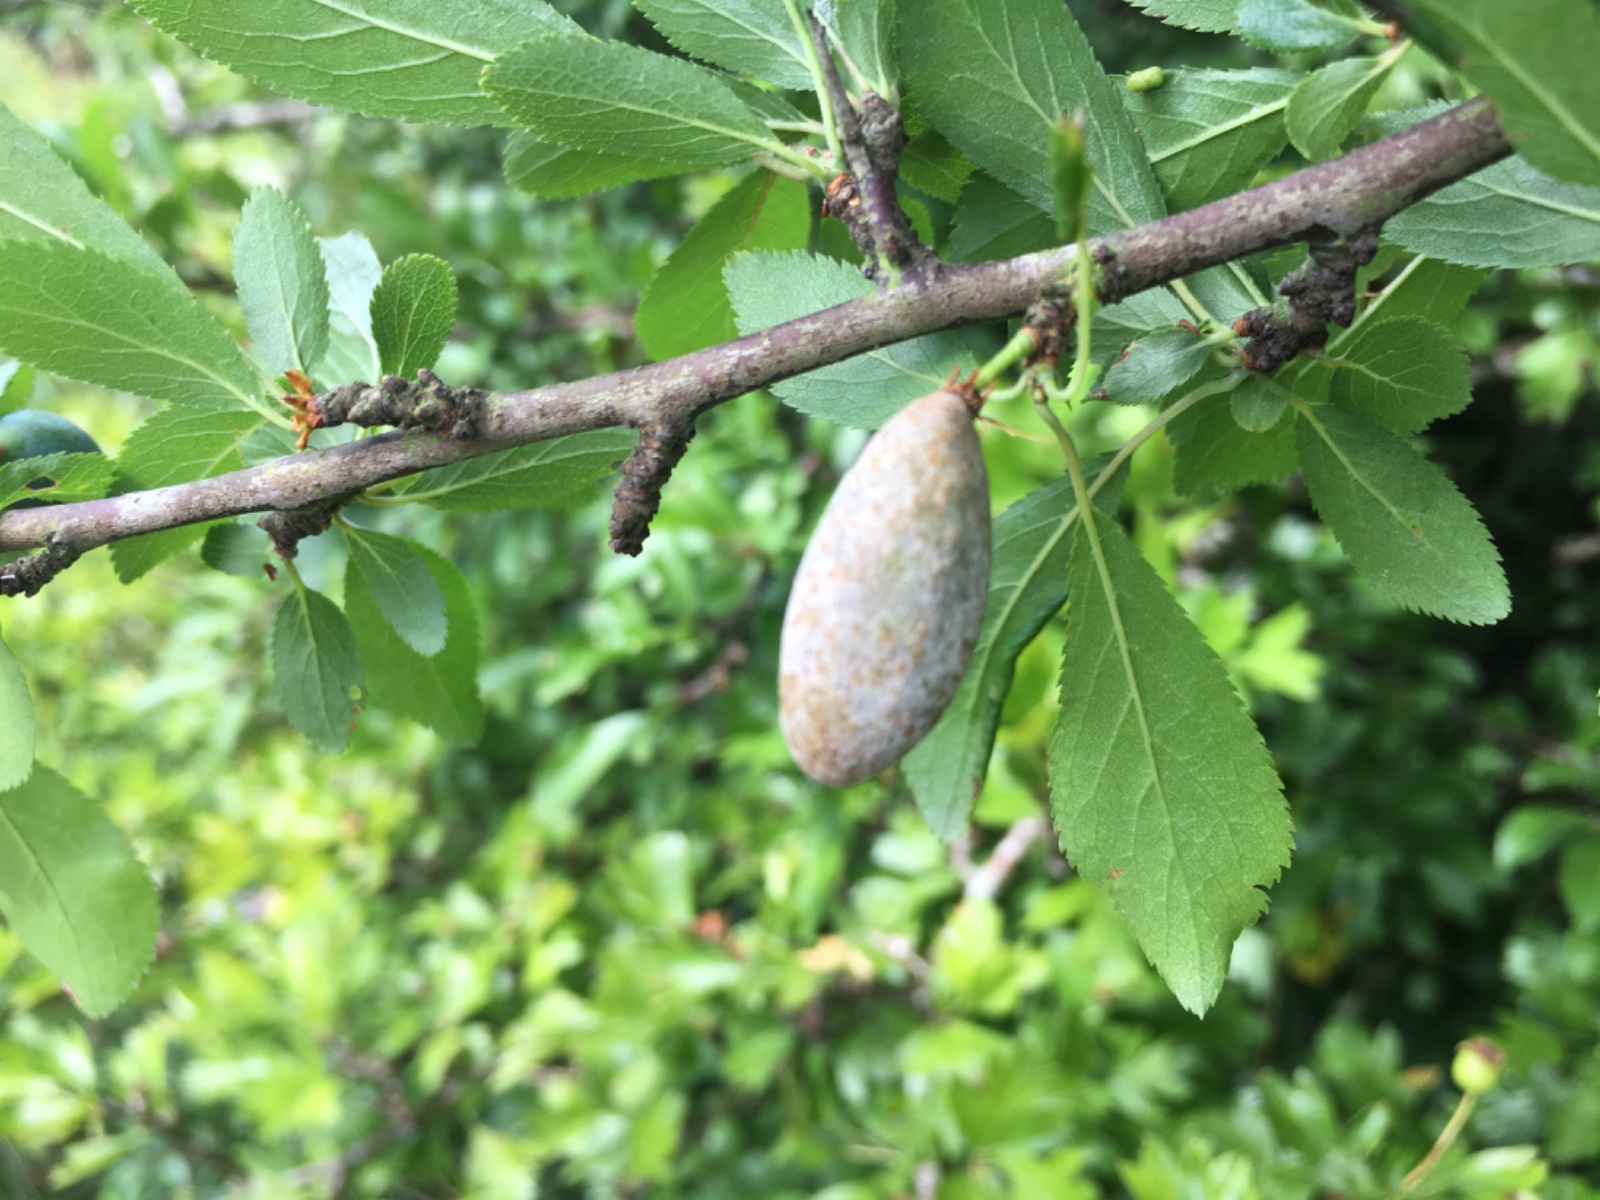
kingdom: Fungi
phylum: Ascomycota
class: Taphrinomycetes
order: Taphrinales
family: Taphrinaceae
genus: Taphrina
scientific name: Taphrina pruni
